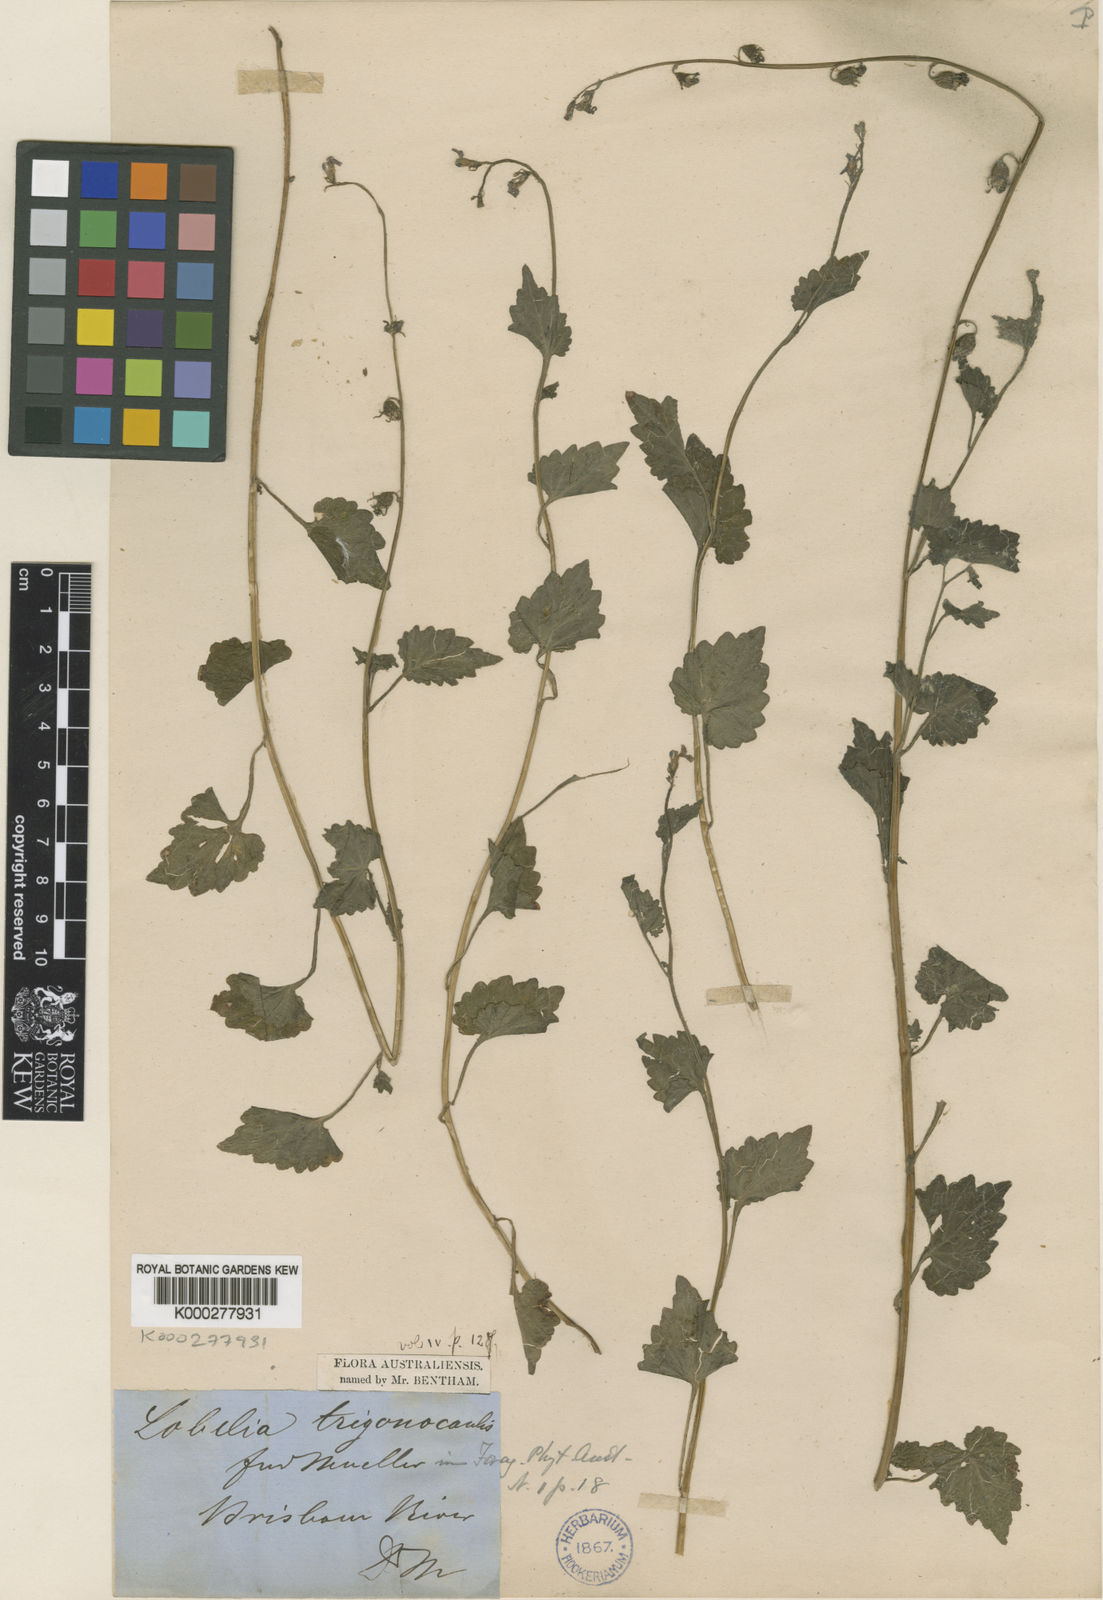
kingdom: Plantae
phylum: Tracheophyta
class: Magnoliopsida
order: Asterales
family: Campanulaceae
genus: Lobelia
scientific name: Lobelia trigonocaulis
